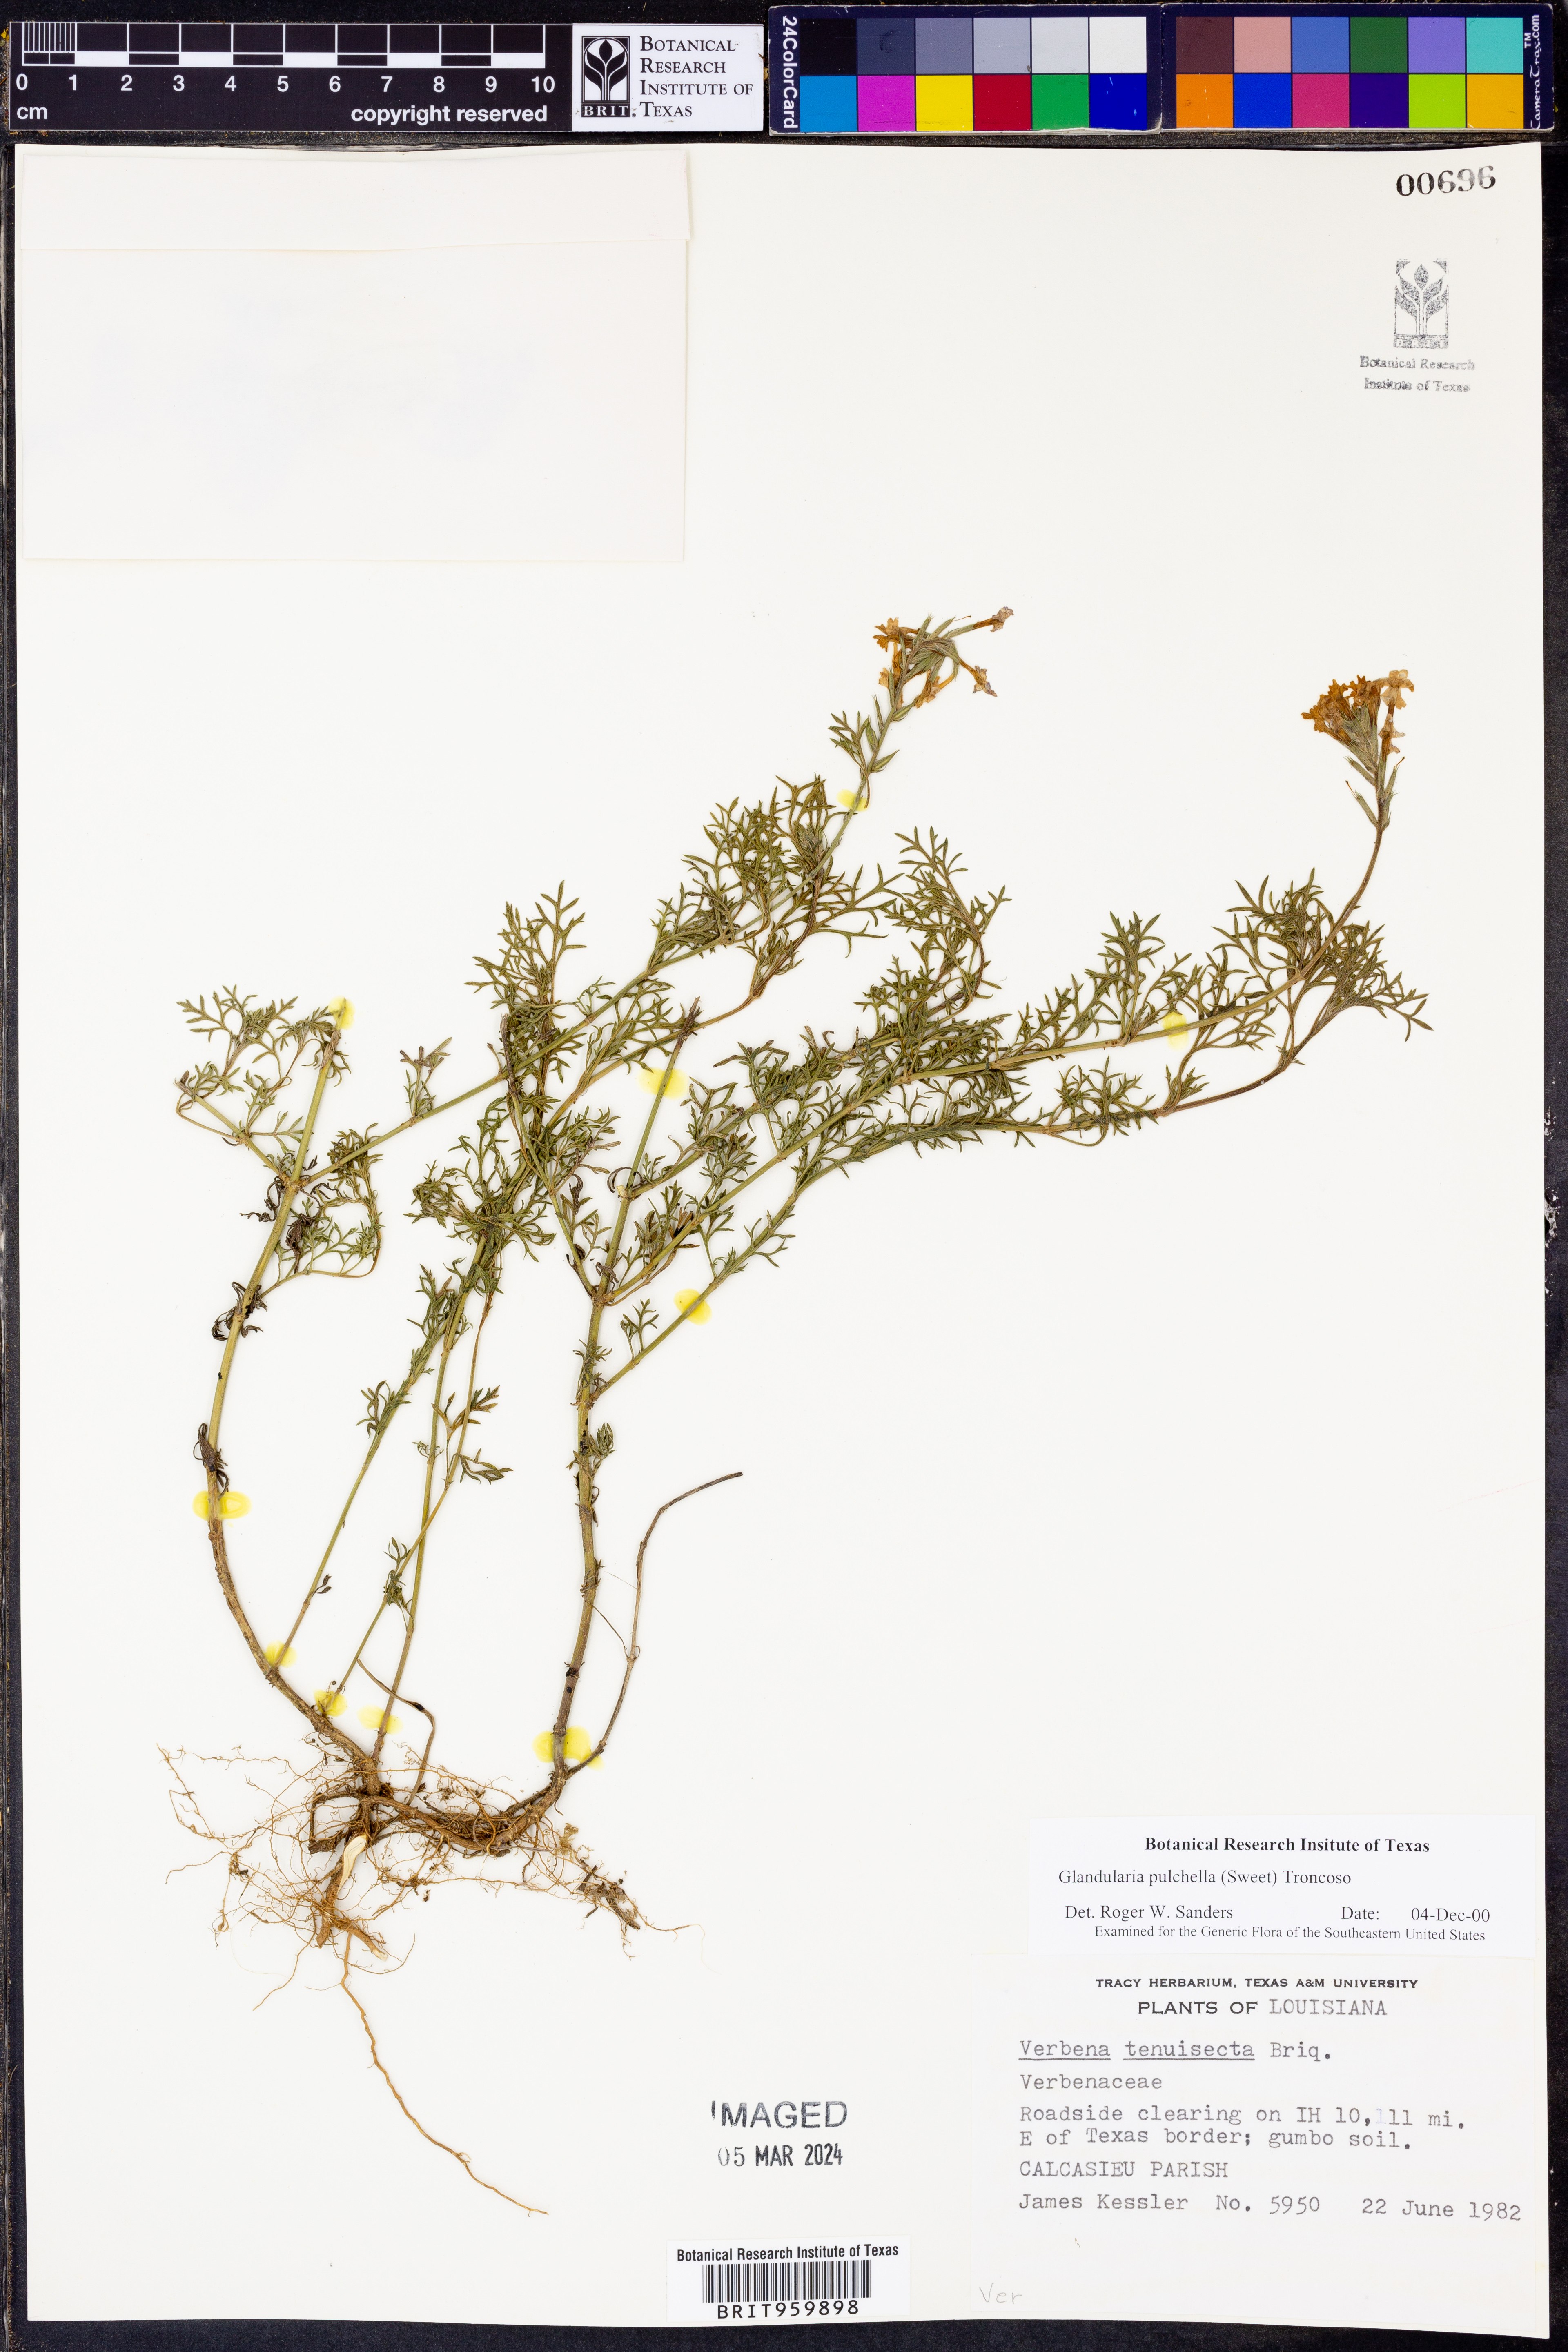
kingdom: Plantae
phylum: Tracheophyta
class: Magnoliopsida
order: Lamiales
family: Verbenaceae
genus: Verbena
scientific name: Verbena tenera
